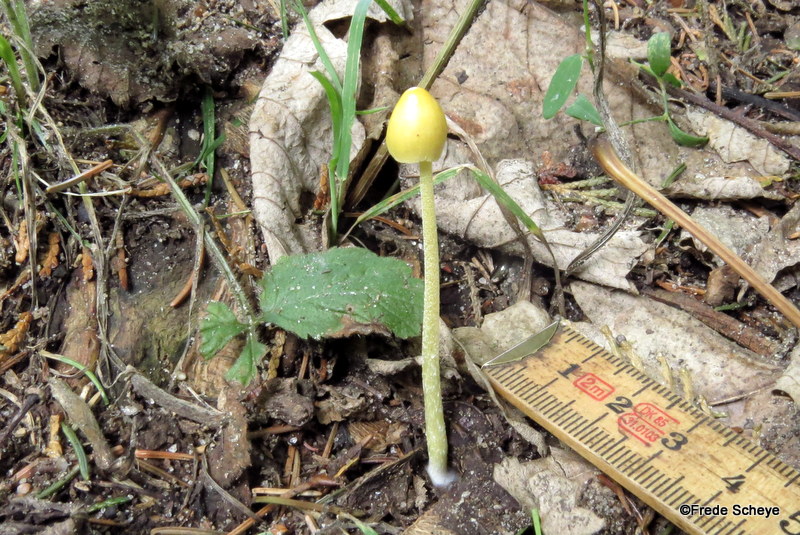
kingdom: Fungi
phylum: Basidiomycota
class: Agaricomycetes
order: Agaricales
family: Bolbitiaceae
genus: Bolbitius
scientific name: Bolbitius titubans
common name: almindelig gulhat
